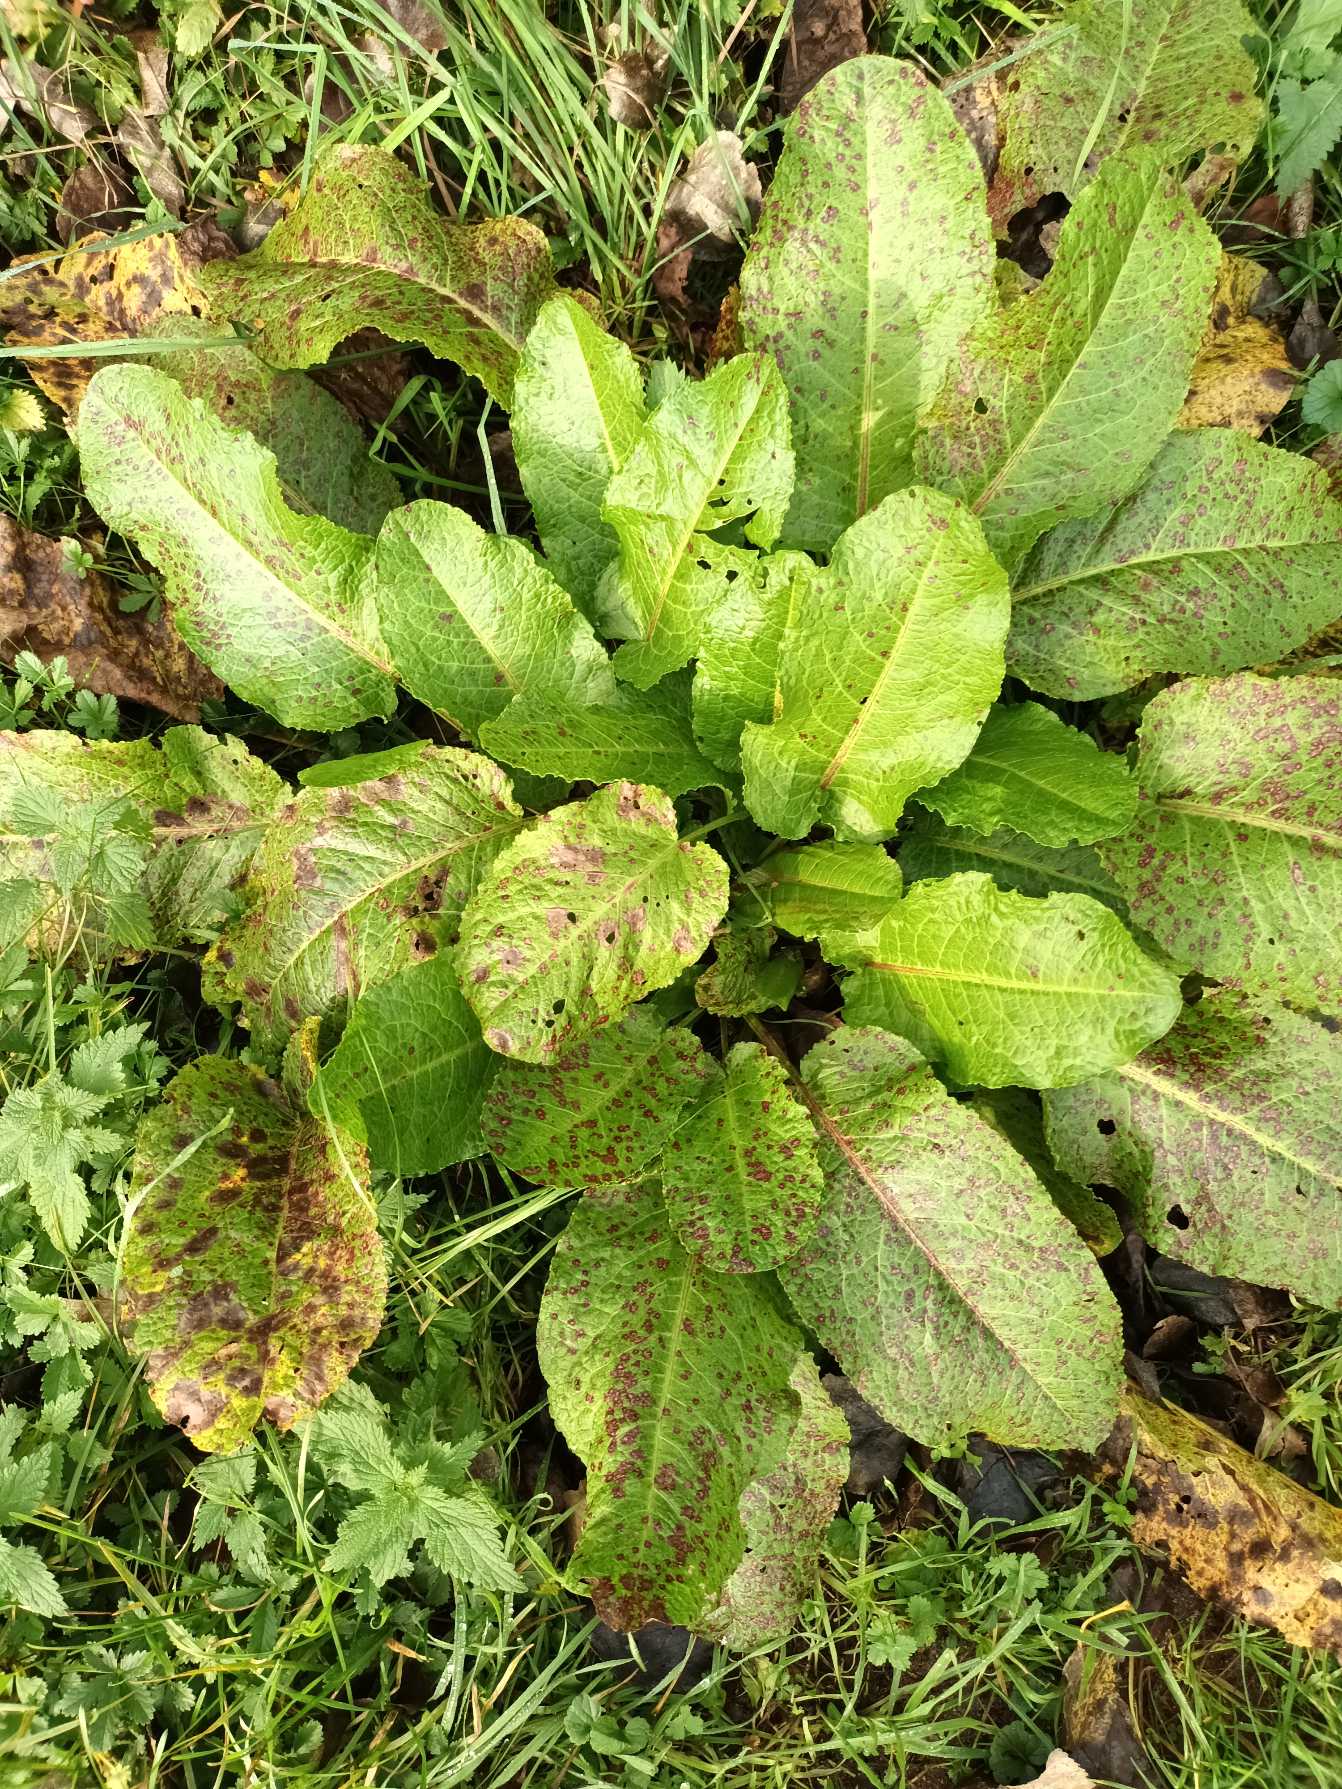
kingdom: Plantae
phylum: Tracheophyta
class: Magnoliopsida
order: Caryophyllales
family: Polygonaceae
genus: Rumex
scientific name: Rumex obtusifolius
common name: Butbladet skræppe
